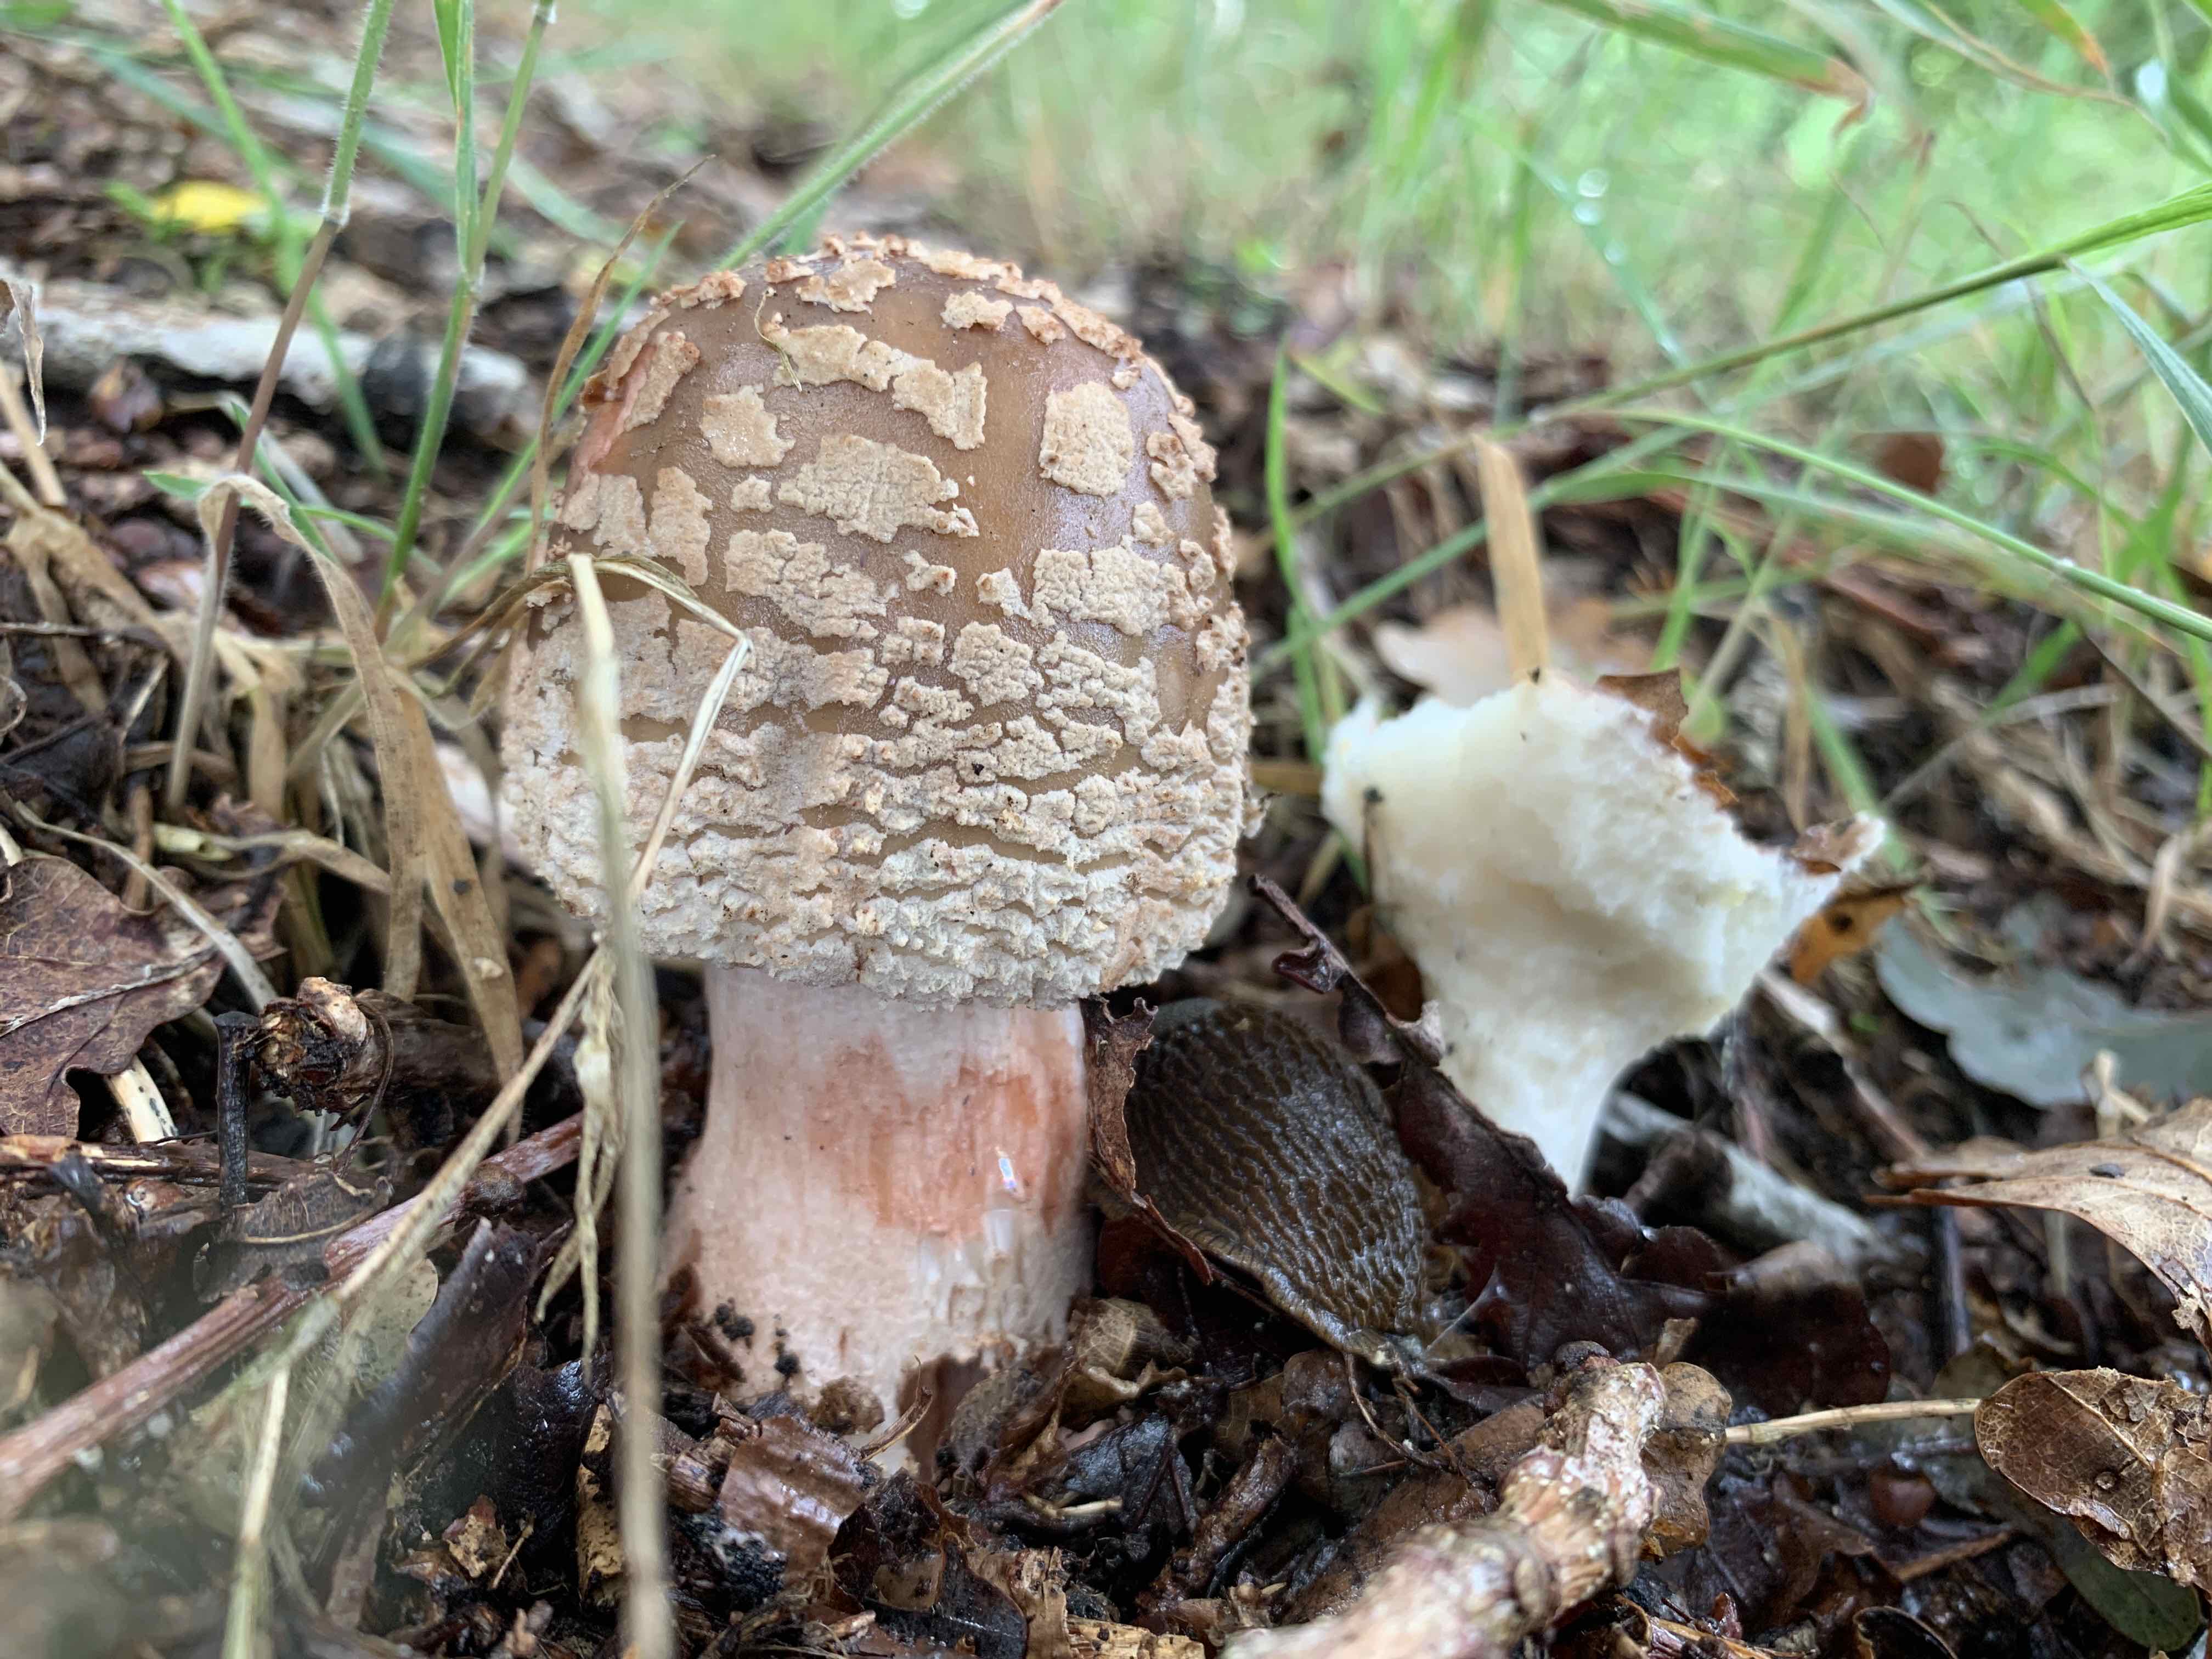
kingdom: Fungi
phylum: Basidiomycota
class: Agaricomycetes
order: Agaricales
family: Amanitaceae
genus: Amanita
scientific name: Amanita rubescens
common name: rødmende fluesvamp
